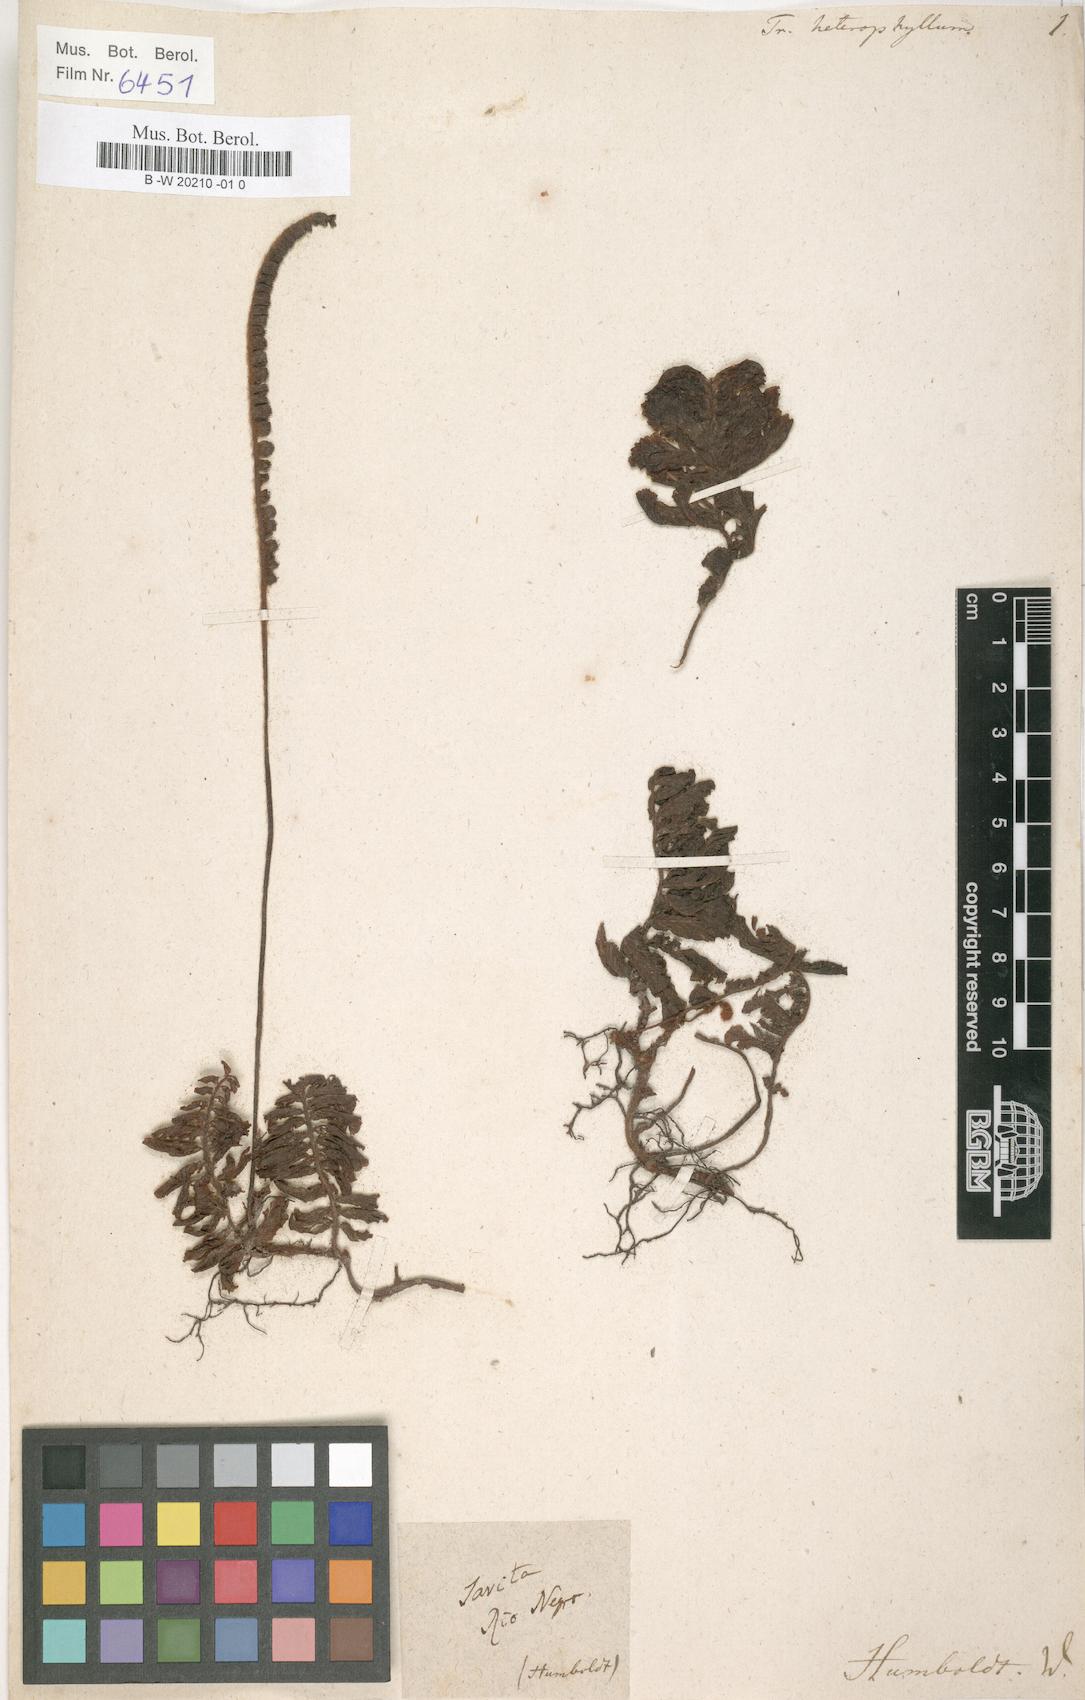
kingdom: Plantae
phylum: Tracheophyta
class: Polypodiopsida
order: Hymenophyllales
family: Hymenophyllaceae
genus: Trichomanes
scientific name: Trichomanes humboldtii
